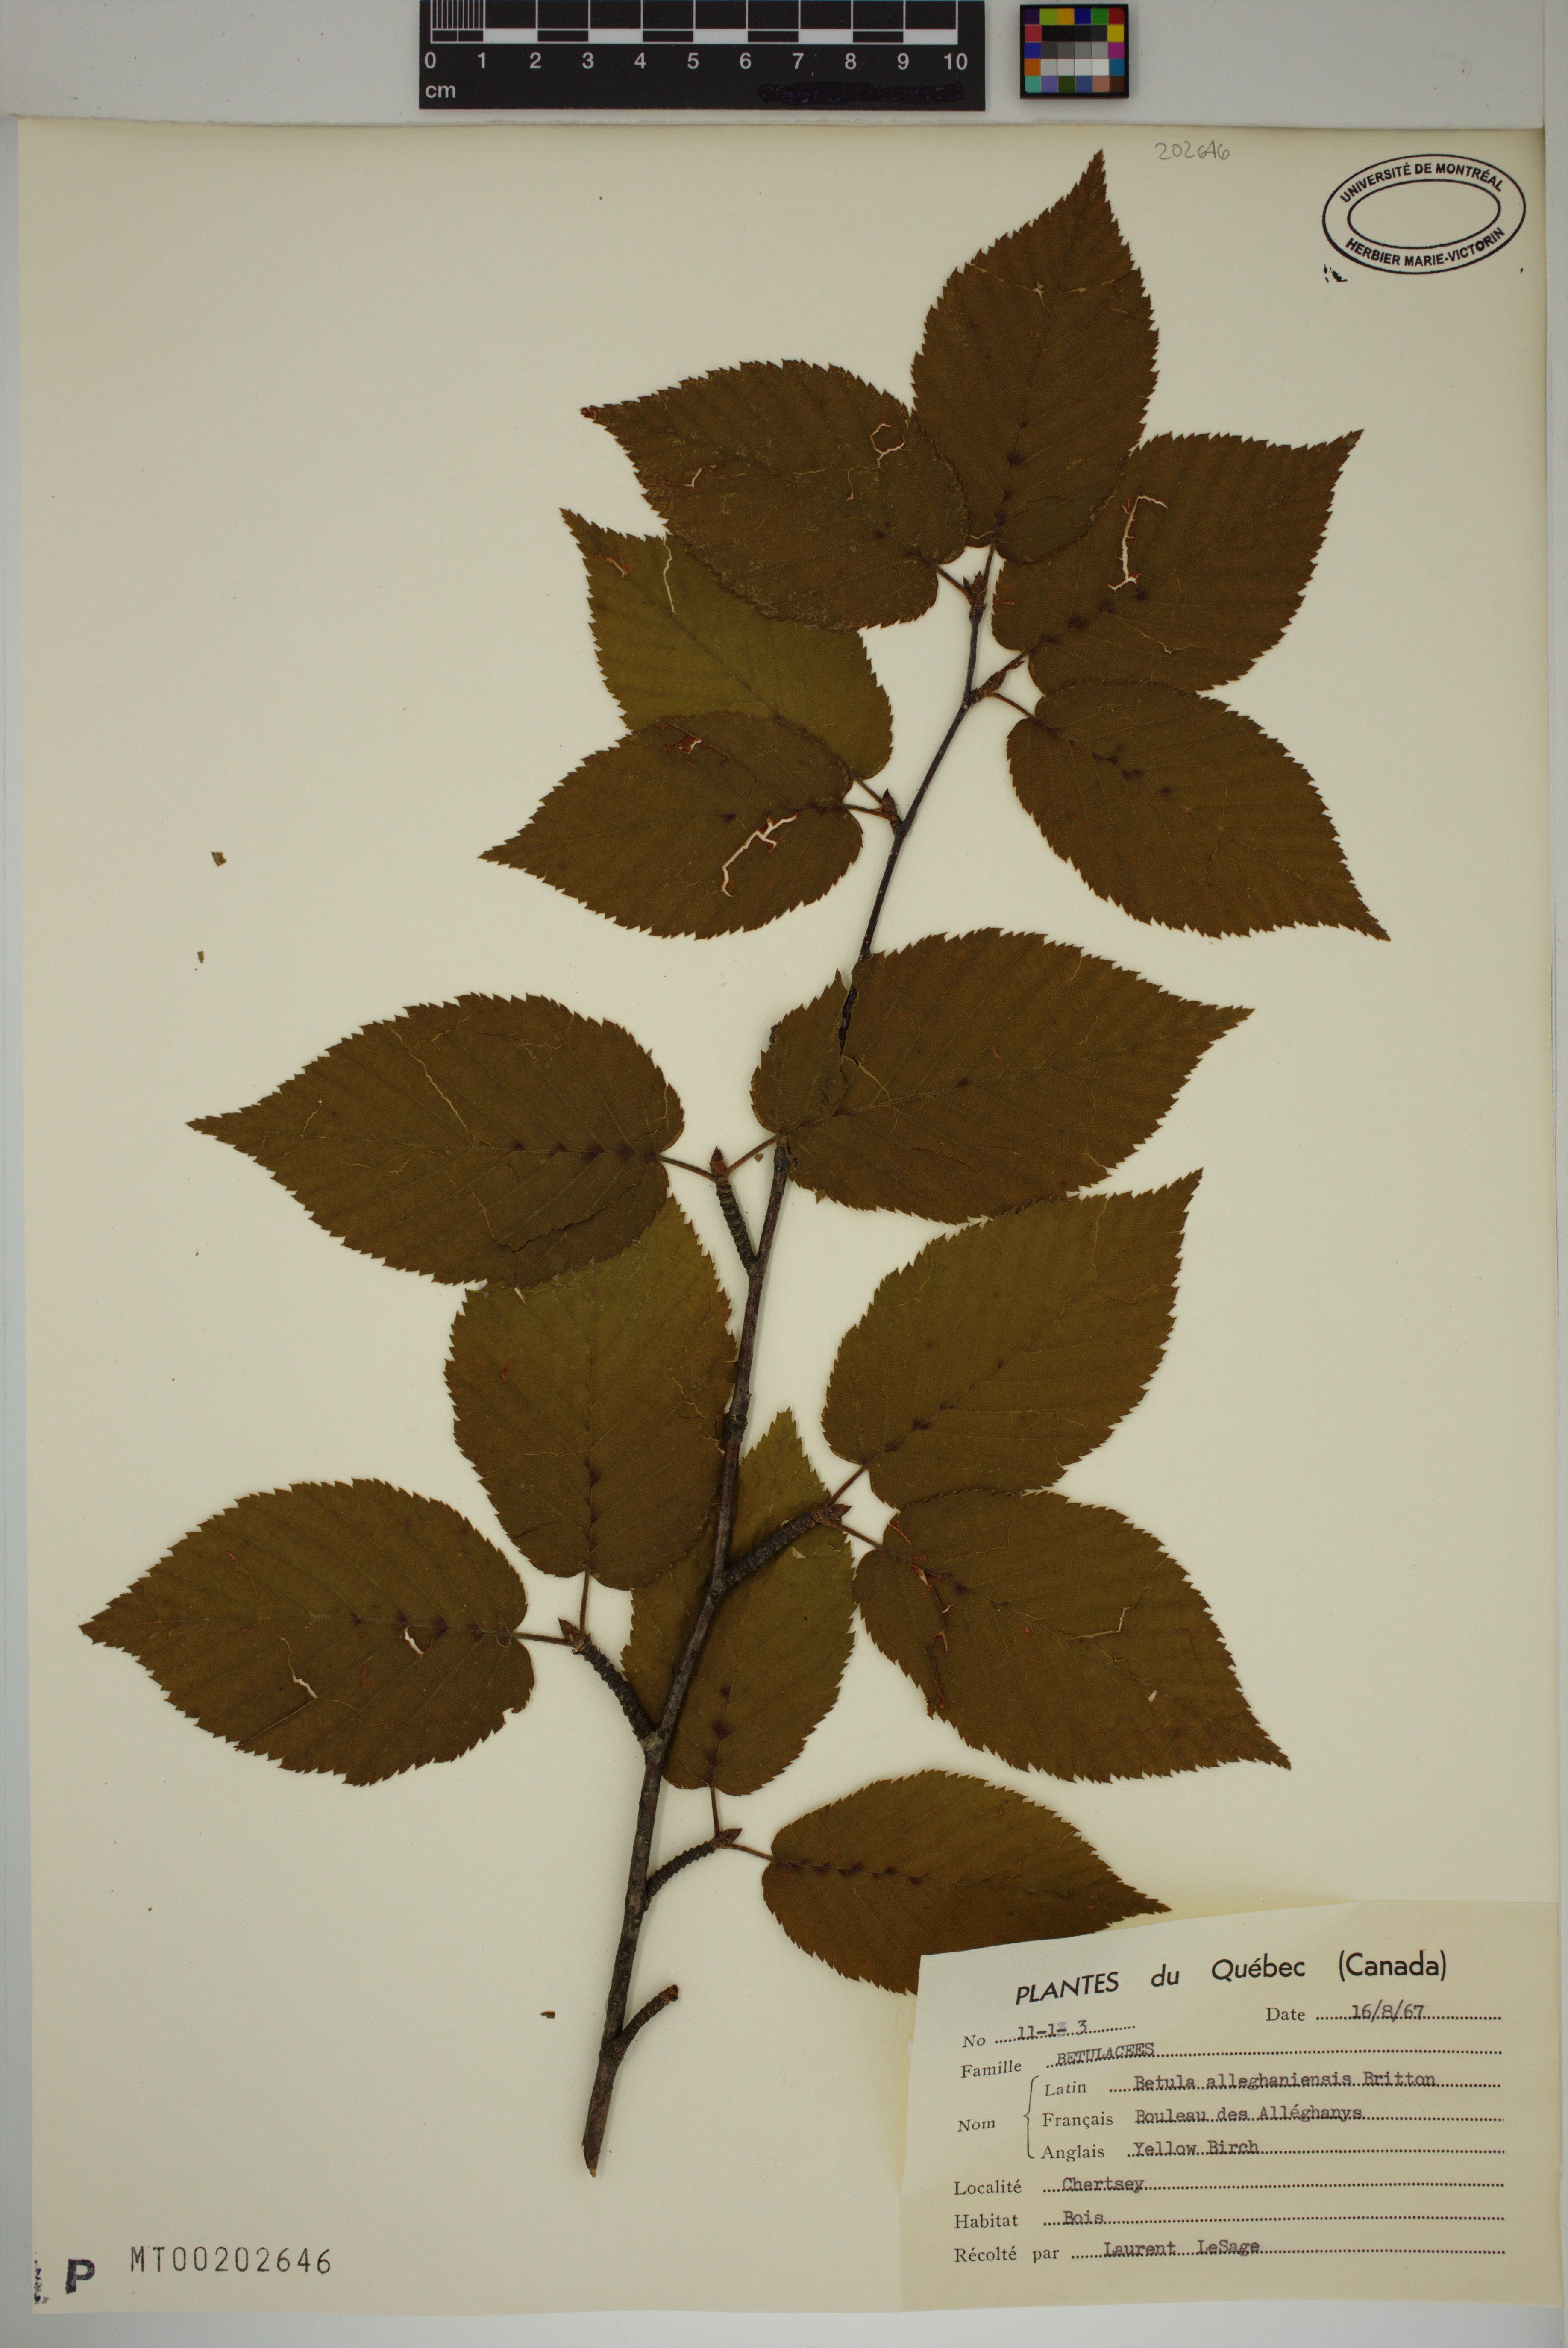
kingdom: Plantae
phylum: Tracheophyta
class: Magnoliopsida
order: Fagales
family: Betulaceae
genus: Betula
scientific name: Betula alleghaniensis
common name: Yellow birch
